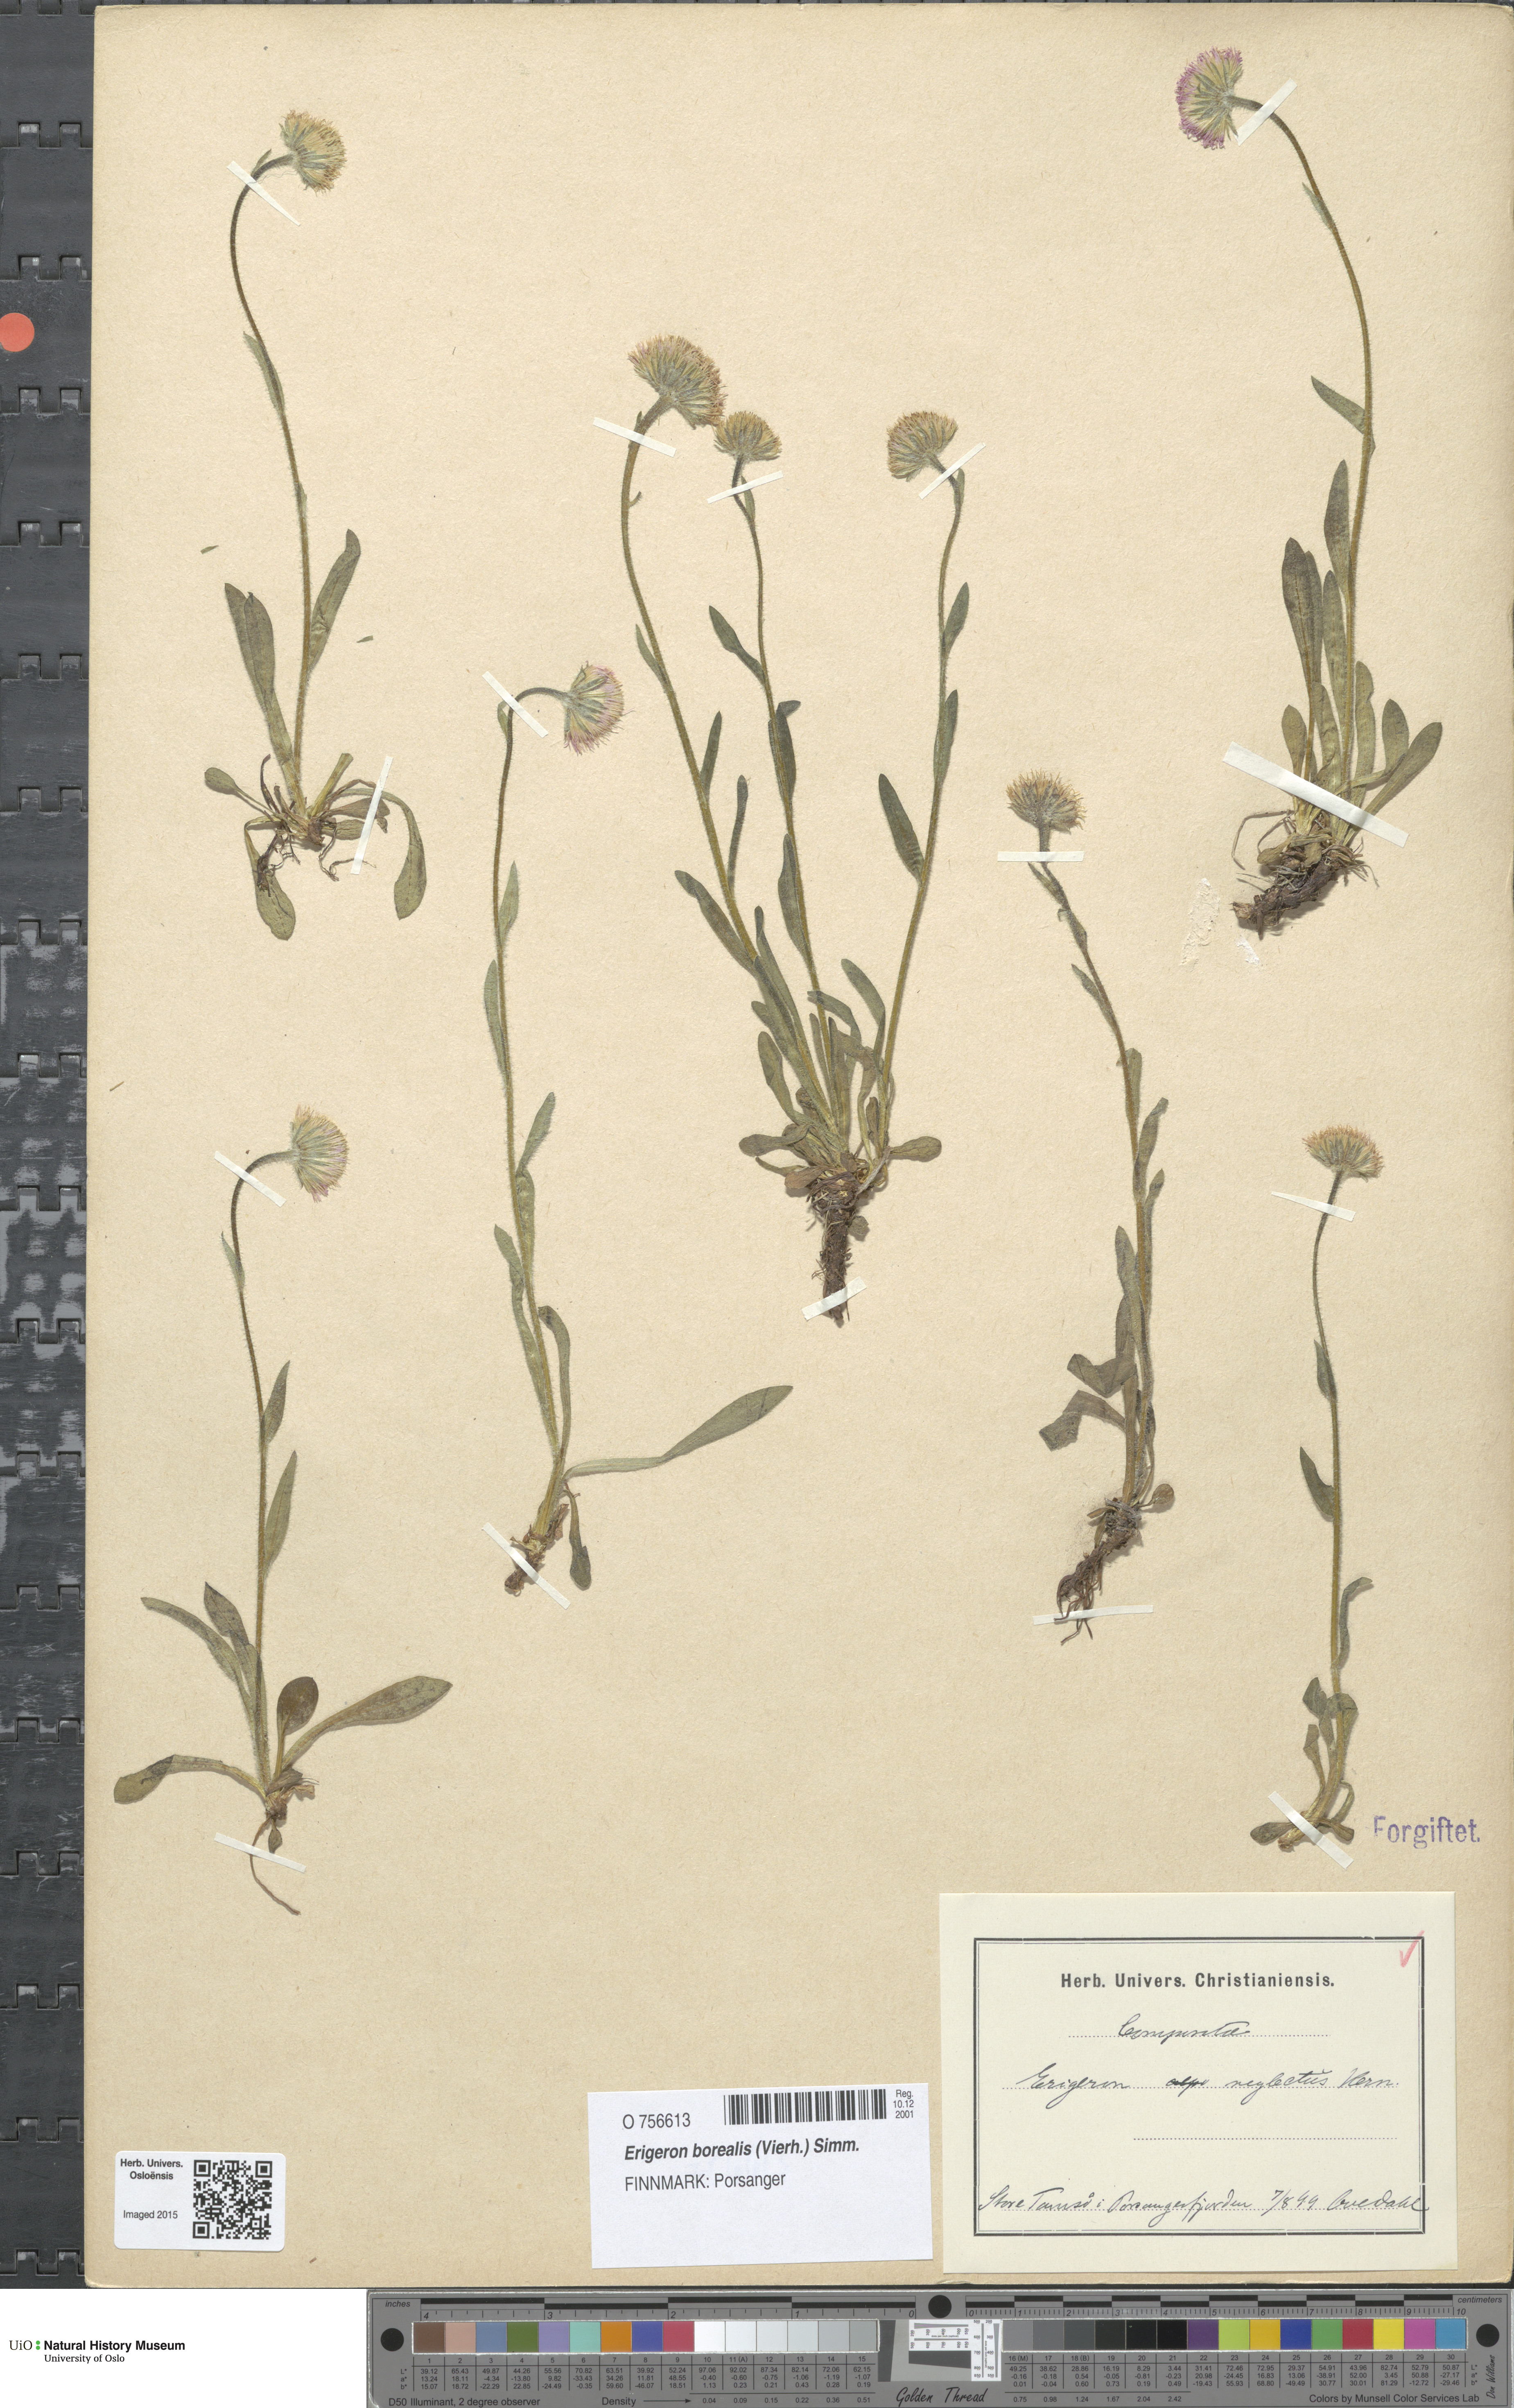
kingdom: Plantae
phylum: Tracheophyta
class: Magnoliopsida
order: Asterales
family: Asteraceae
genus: Erigeron
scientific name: Erigeron borealis
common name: Alpine fleabane
